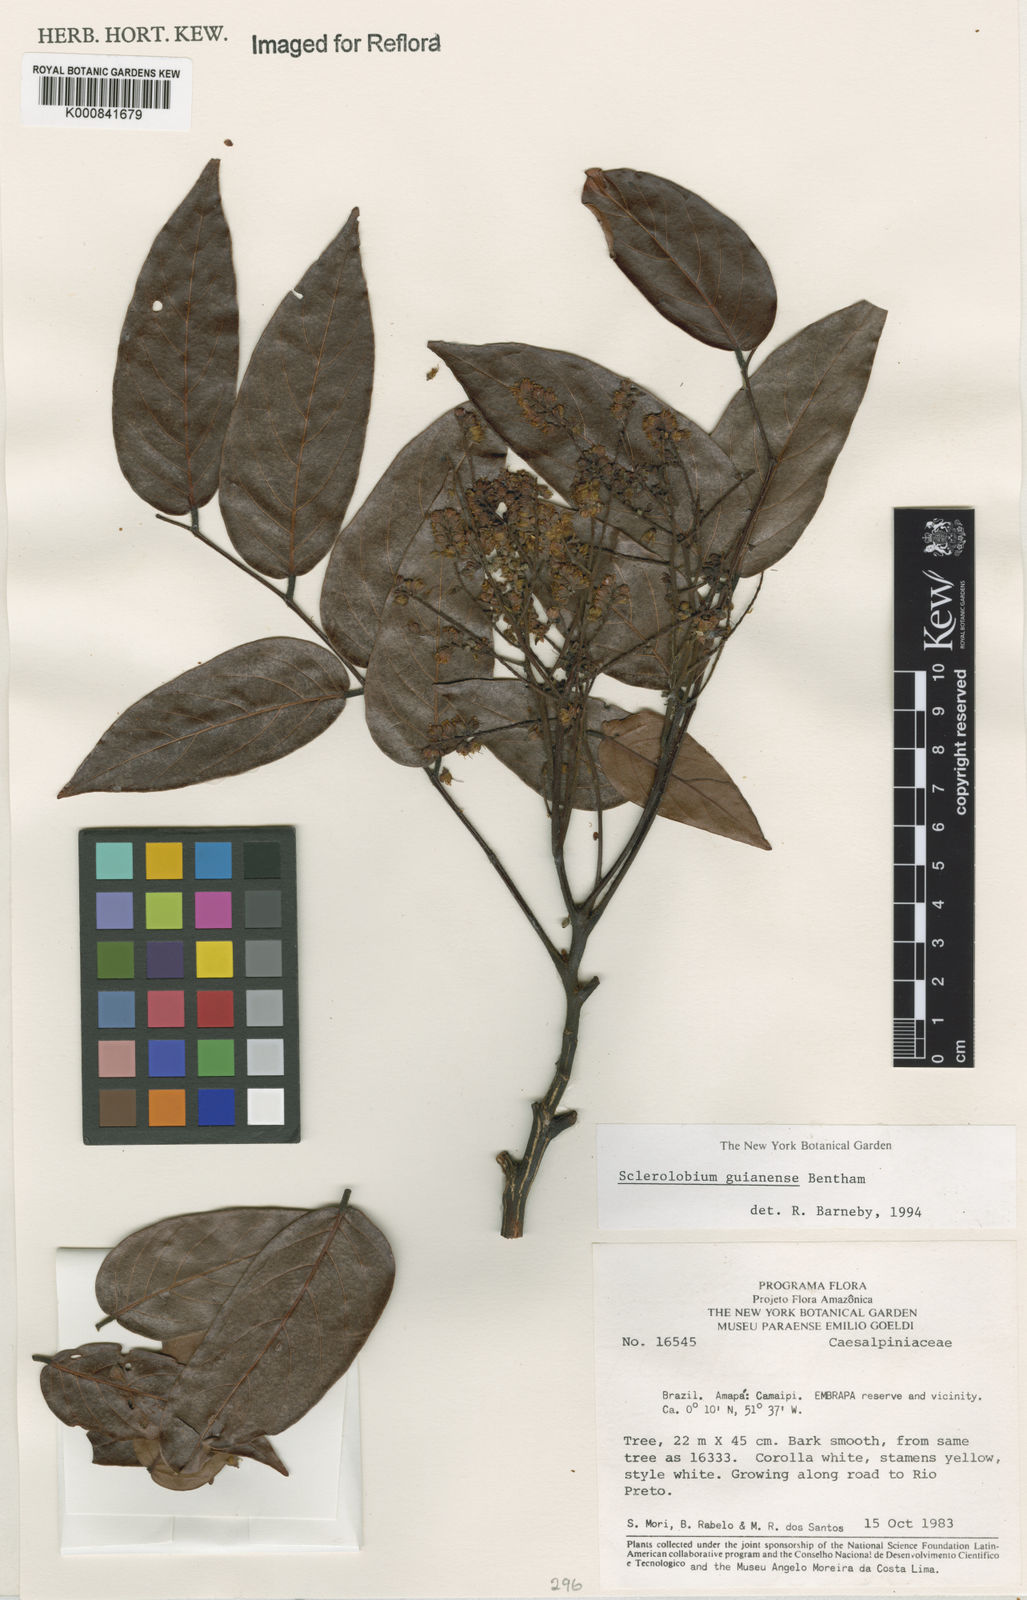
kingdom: Plantae
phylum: Tracheophyta
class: Magnoliopsida
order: Fabales
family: Fabaceae
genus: Tachigali
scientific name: Tachigali guianensis
